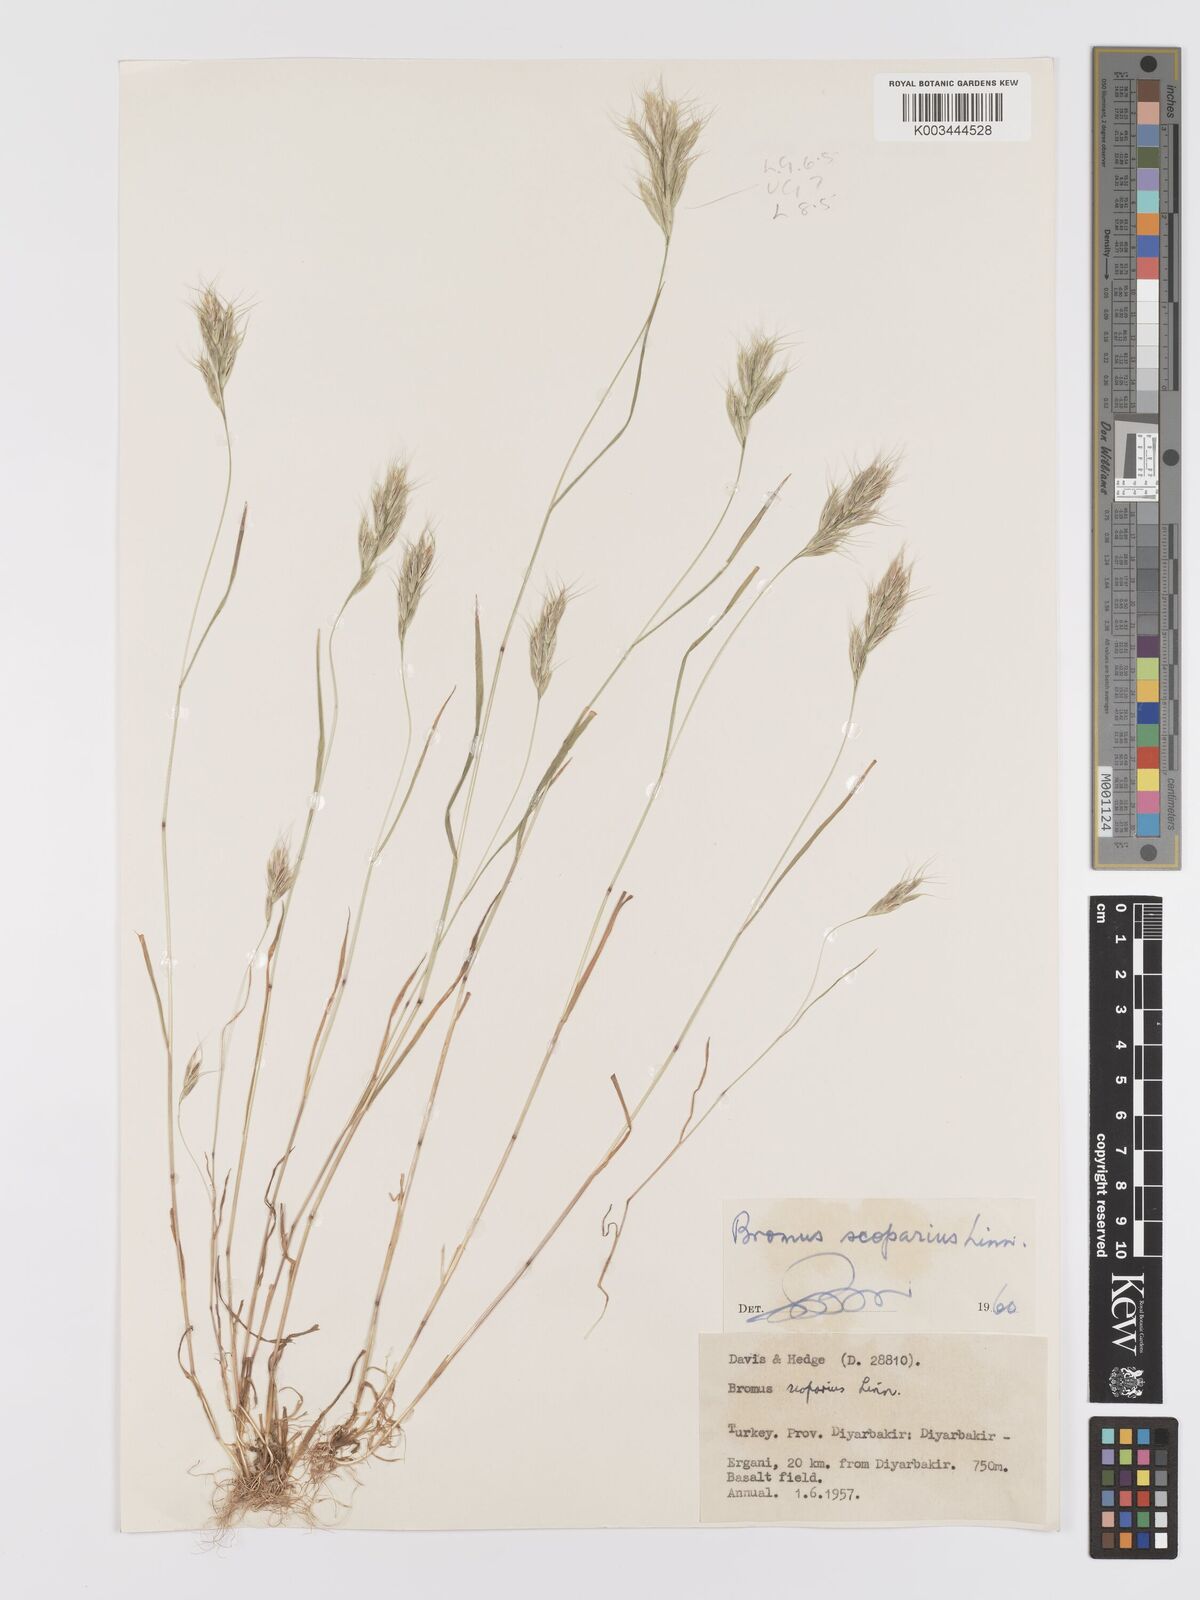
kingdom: Plantae
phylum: Tracheophyta
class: Liliopsida
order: Poales
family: Poaceae
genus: Bromus
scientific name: Bromus scoparius
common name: Broom brome
